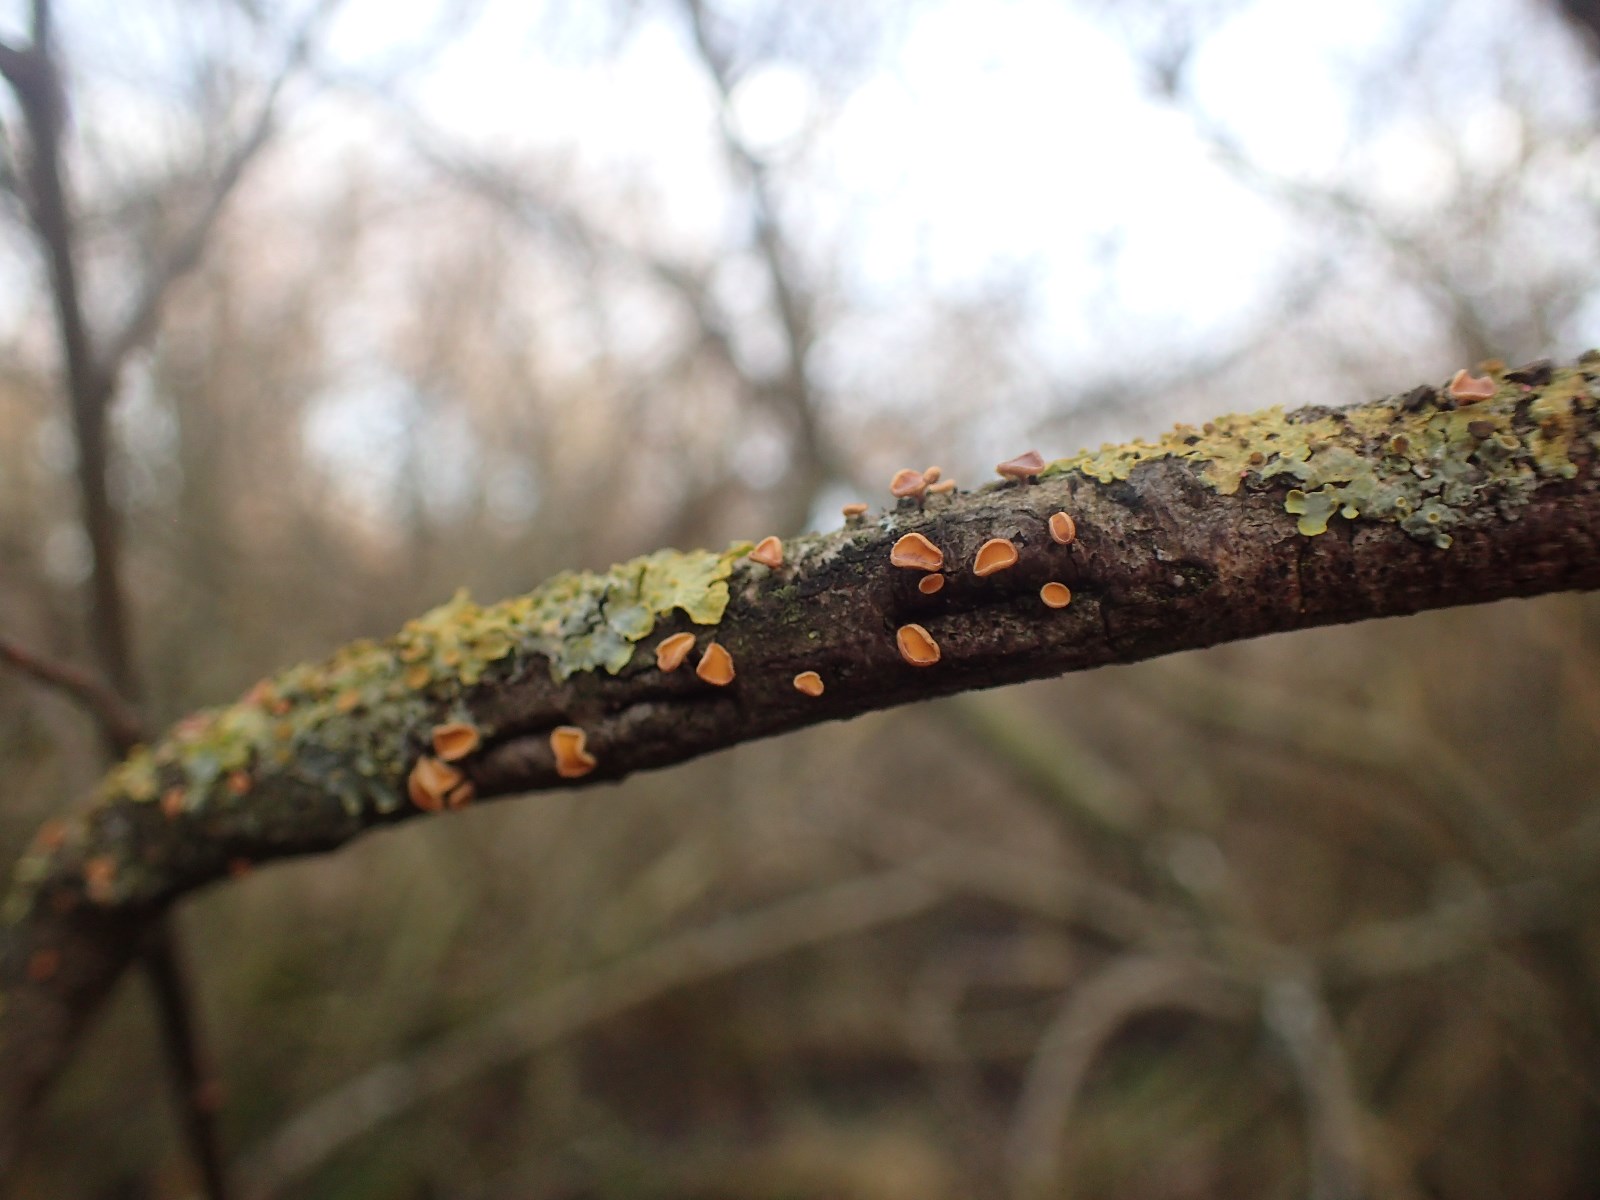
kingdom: Fungi
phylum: Ascomycota
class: Leotiomycetes
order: Helotiales
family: Helotiaceae
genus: Hymenoscyphus
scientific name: Hymenoscyphus
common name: stilkskive
